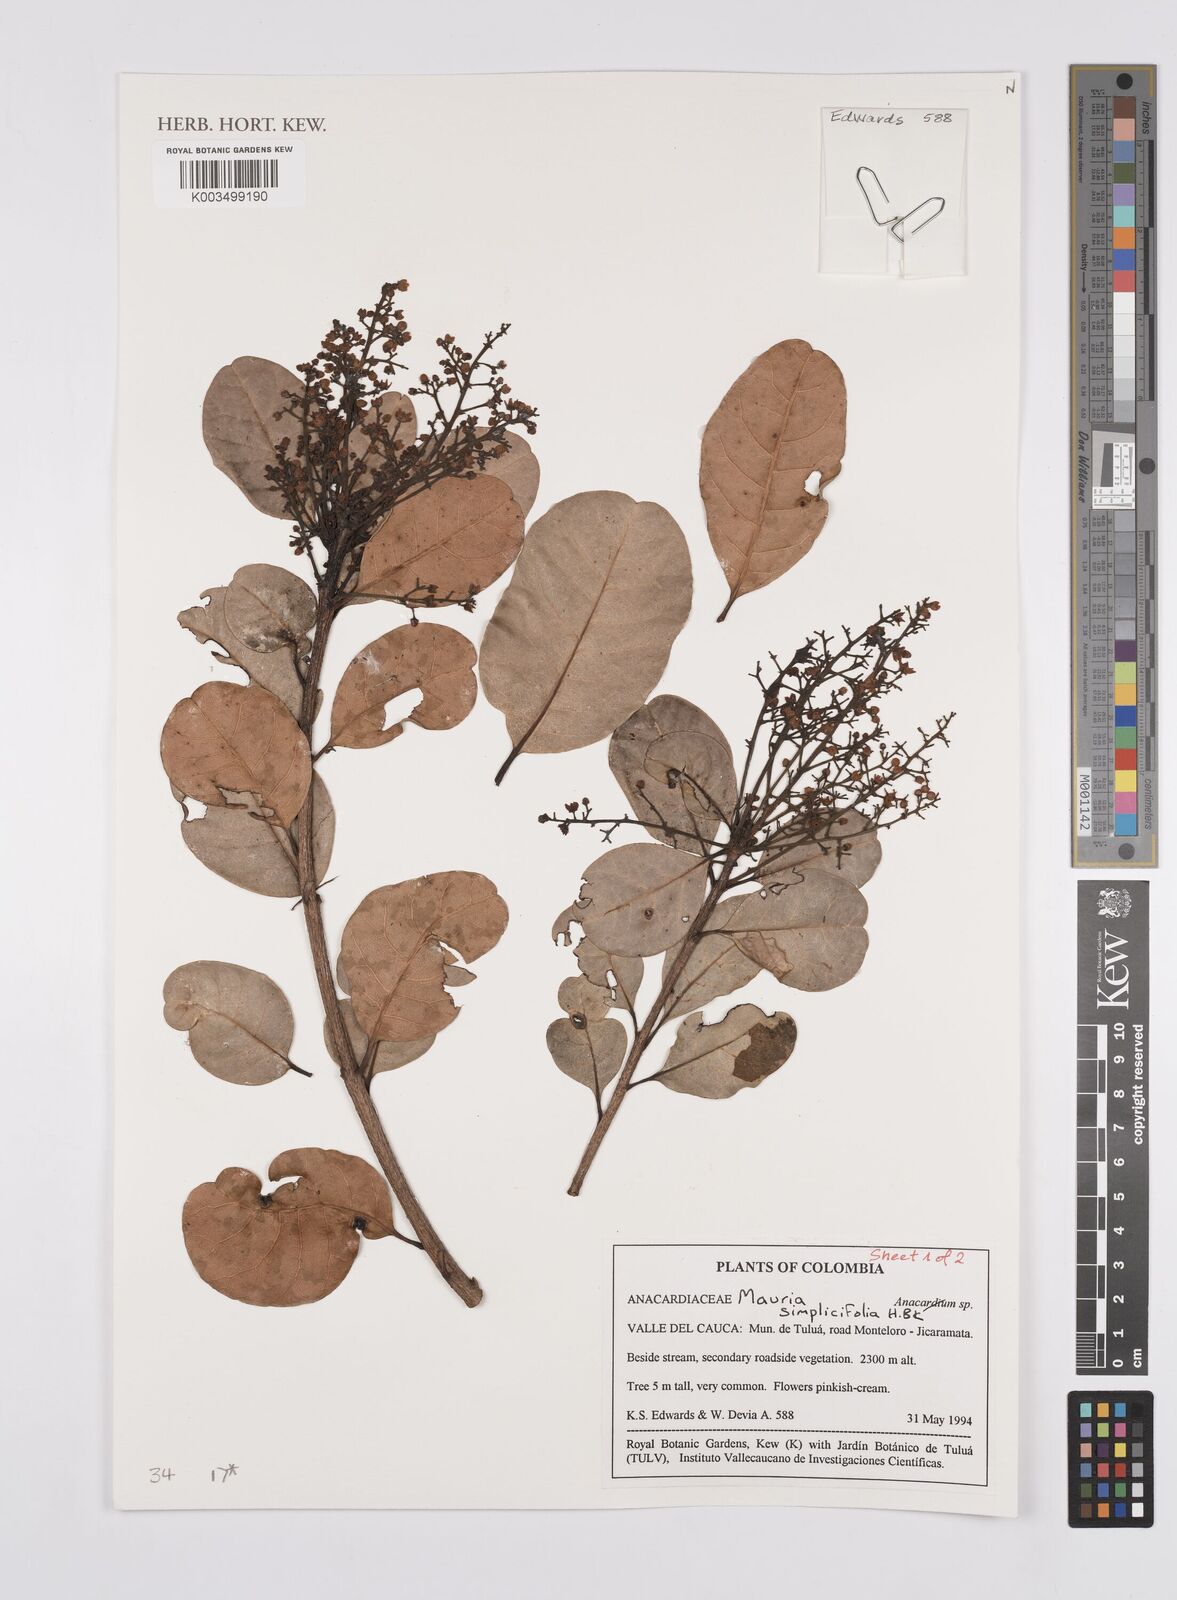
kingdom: Plantae
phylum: Tracheophyta
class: Magnoliopsida
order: Sapindales
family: Anacardiaceae
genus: Mauria
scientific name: Mauria simplicifolia
